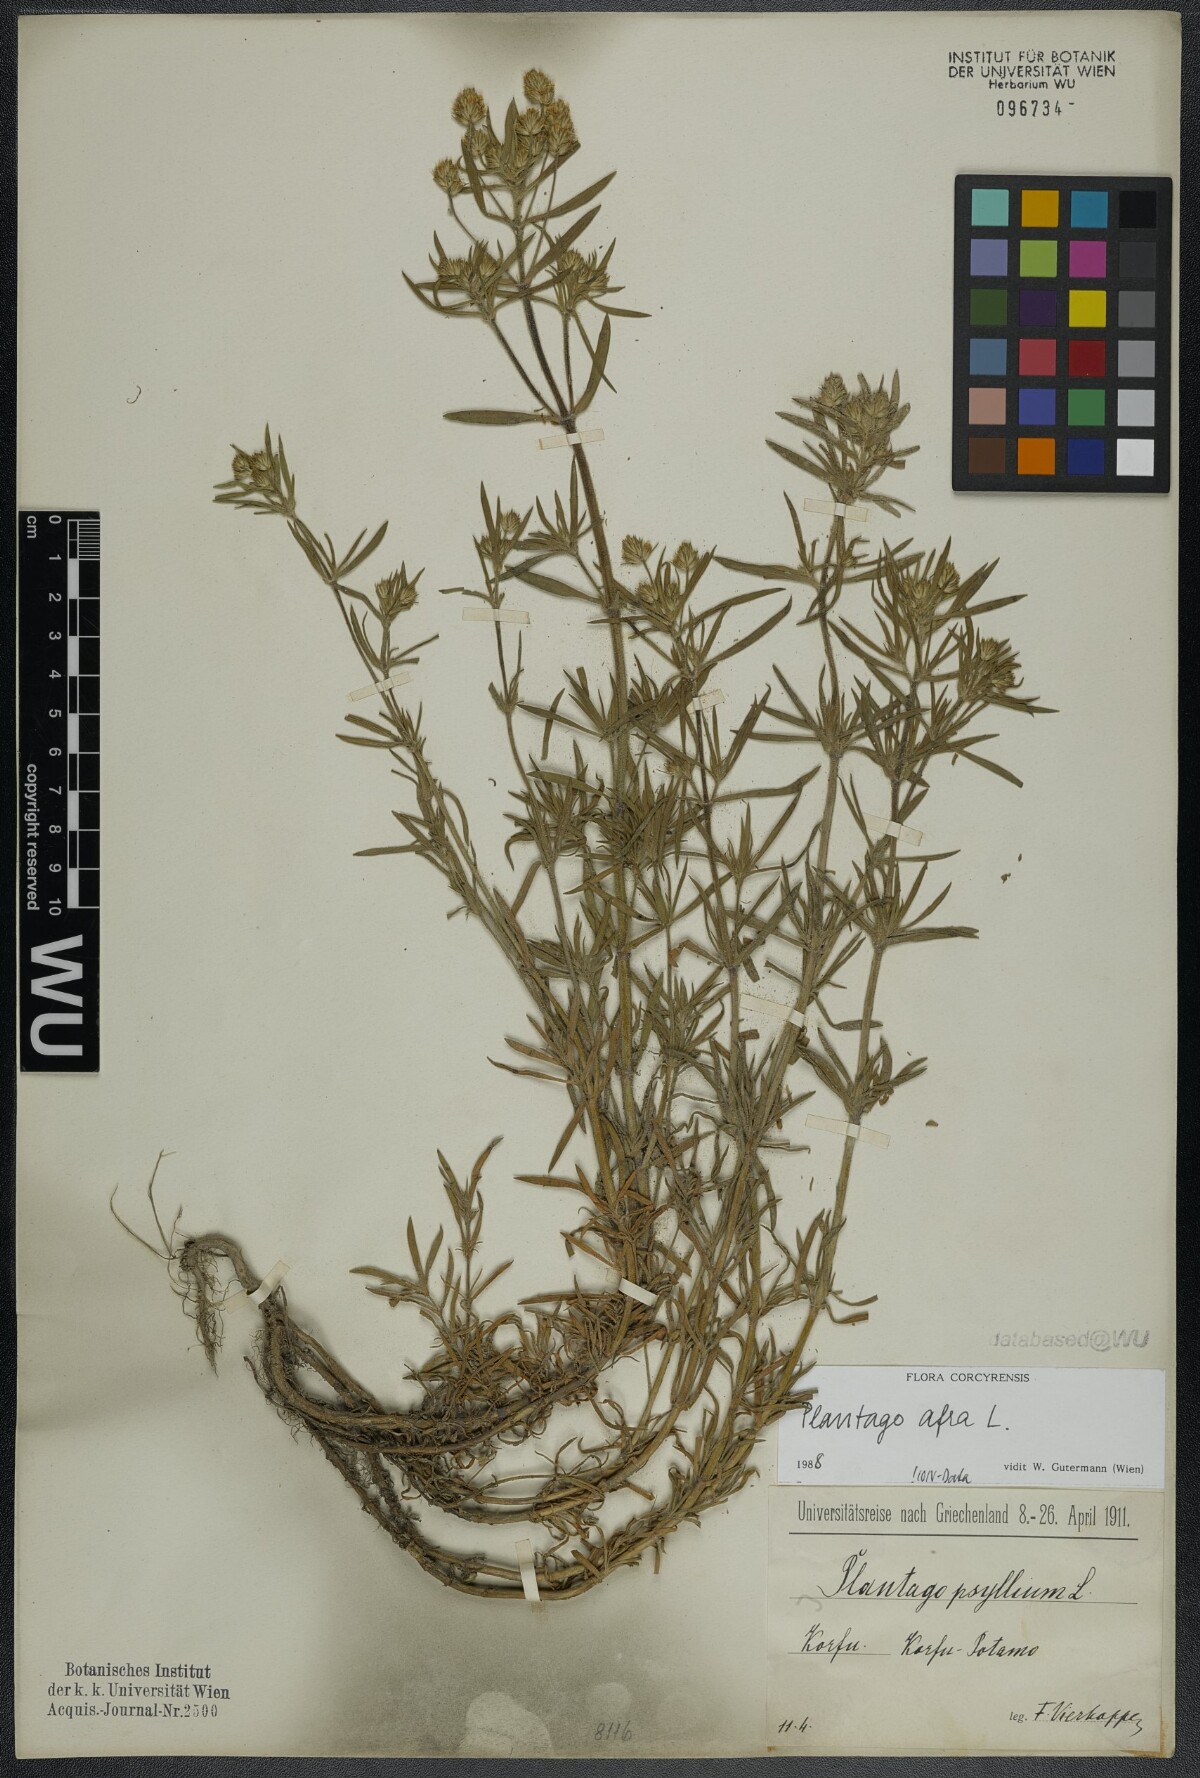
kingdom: Plantae
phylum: Tracheophyta
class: Magnoliopsida
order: Lamiales
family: Plantaginaceae
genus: Plantago
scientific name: Plantago afra
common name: Glandular plantain
